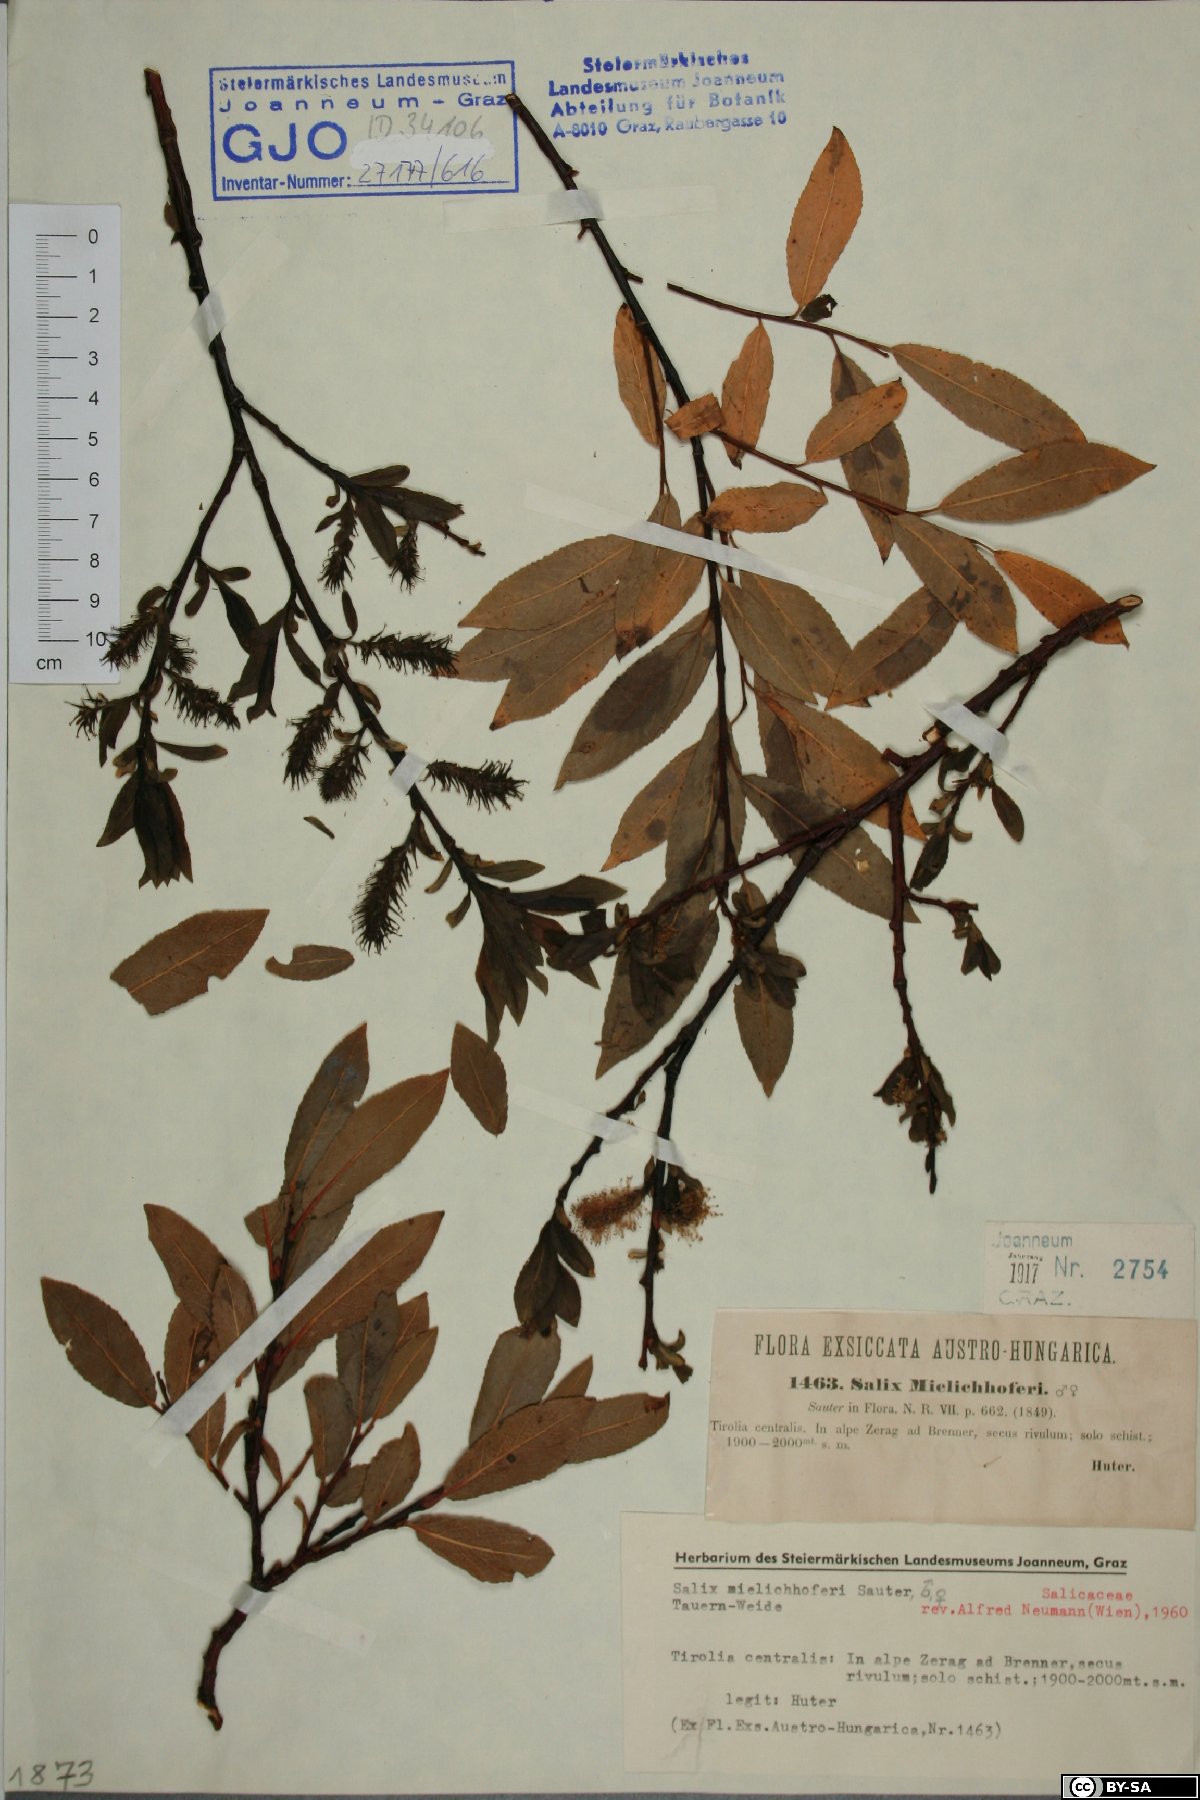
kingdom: Plantae
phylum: Tracheophyta
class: Magnoliopsida
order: Malpighiales
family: Salicaceae
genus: Salix
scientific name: Salix mielichhoferi
